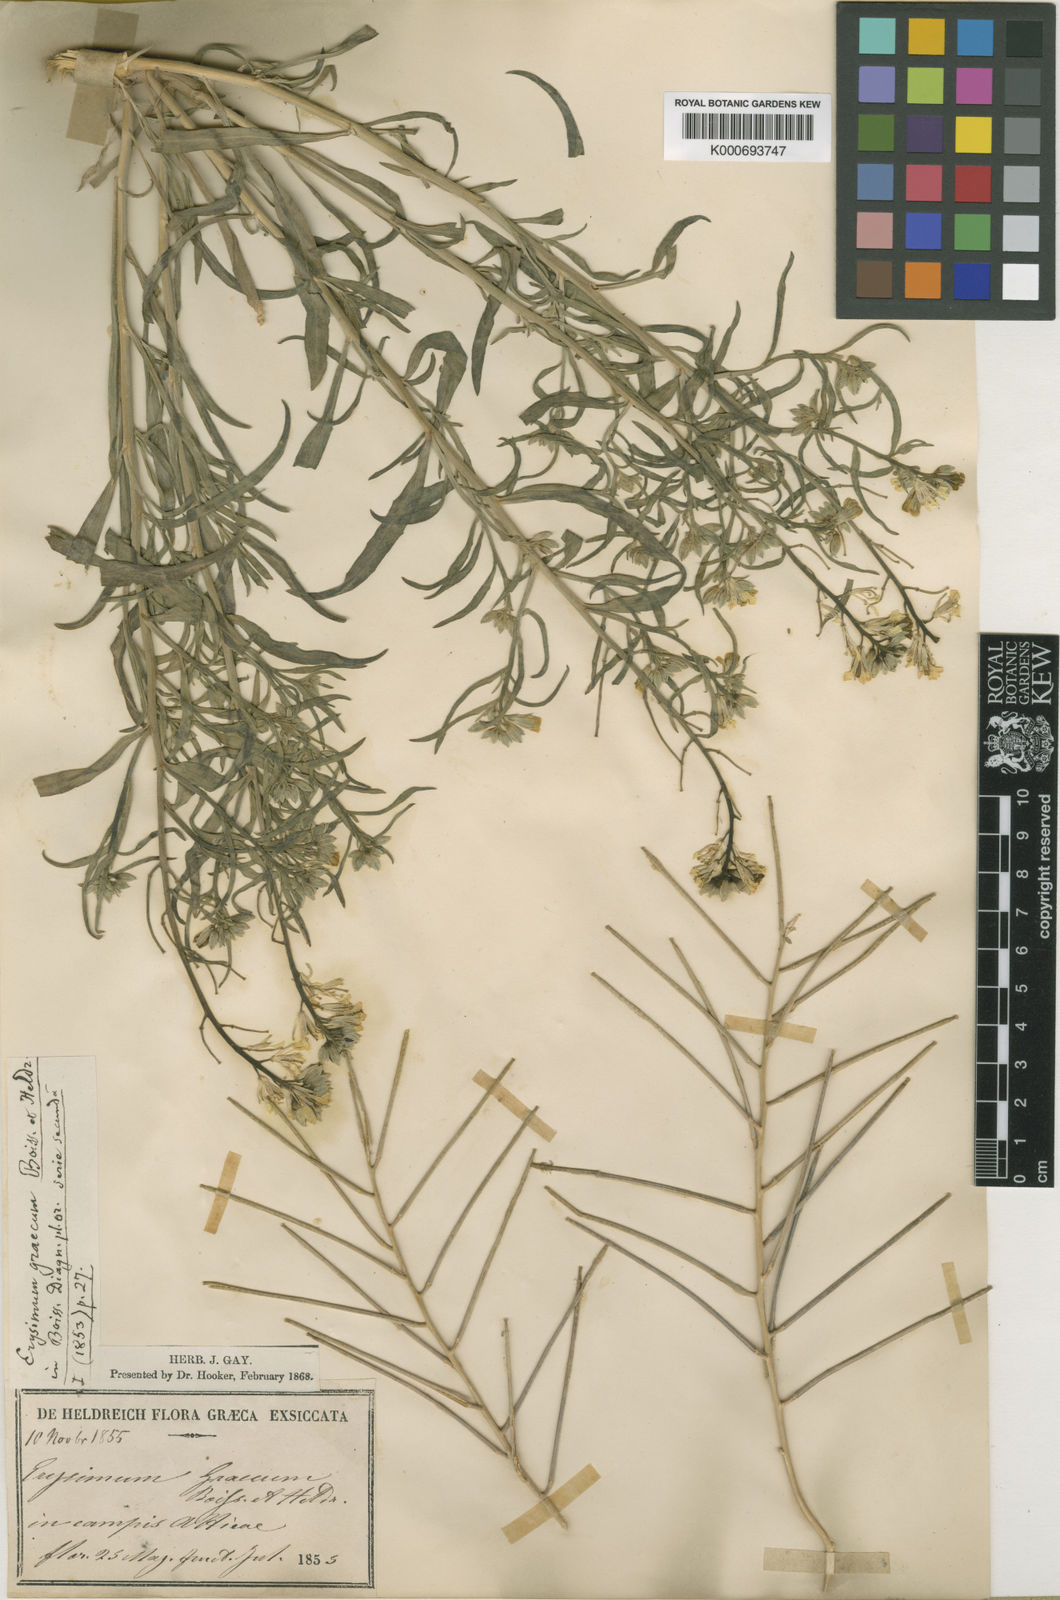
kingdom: Plantae
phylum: Tracheophyta
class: Magnoliopsida
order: Brassicales
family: Brassicaceae
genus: Erysimum
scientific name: Erysimum graecum
